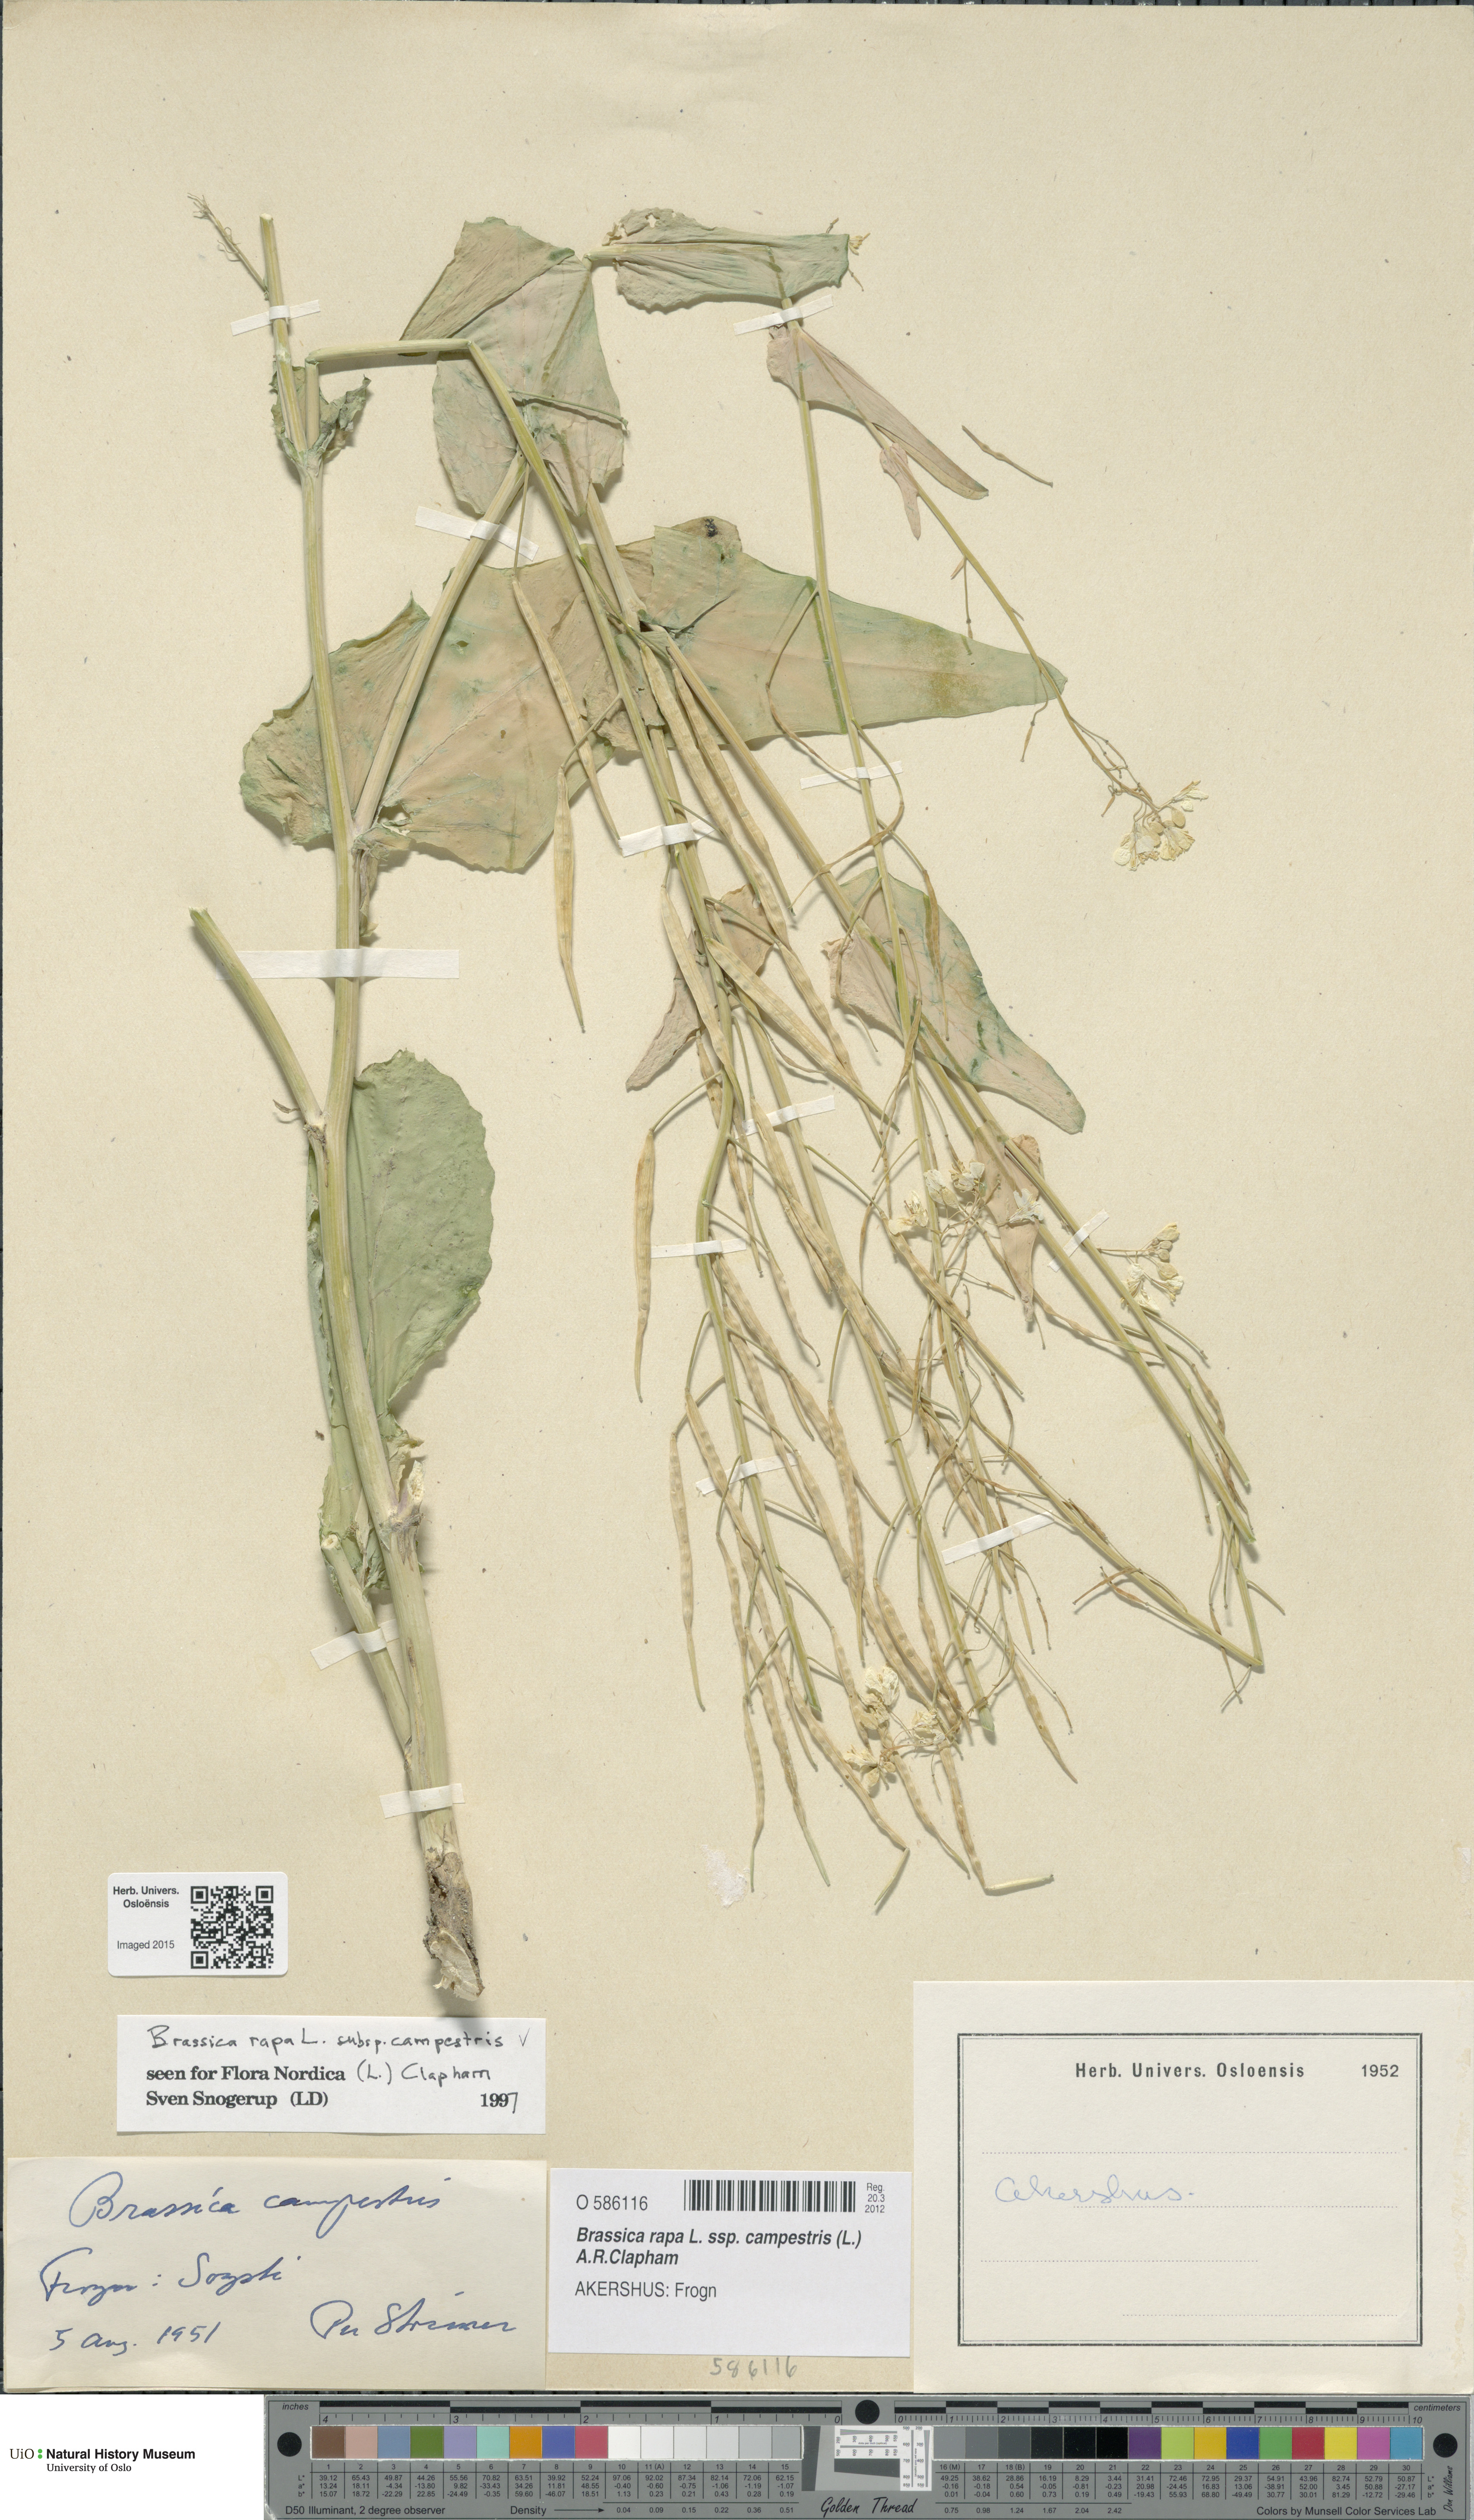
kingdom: Plantae
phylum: Tracheophyta
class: Magnoliopsida
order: Brassicales
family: Brassicaceae
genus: Brassica
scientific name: Brassica rapa
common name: Field mustard
